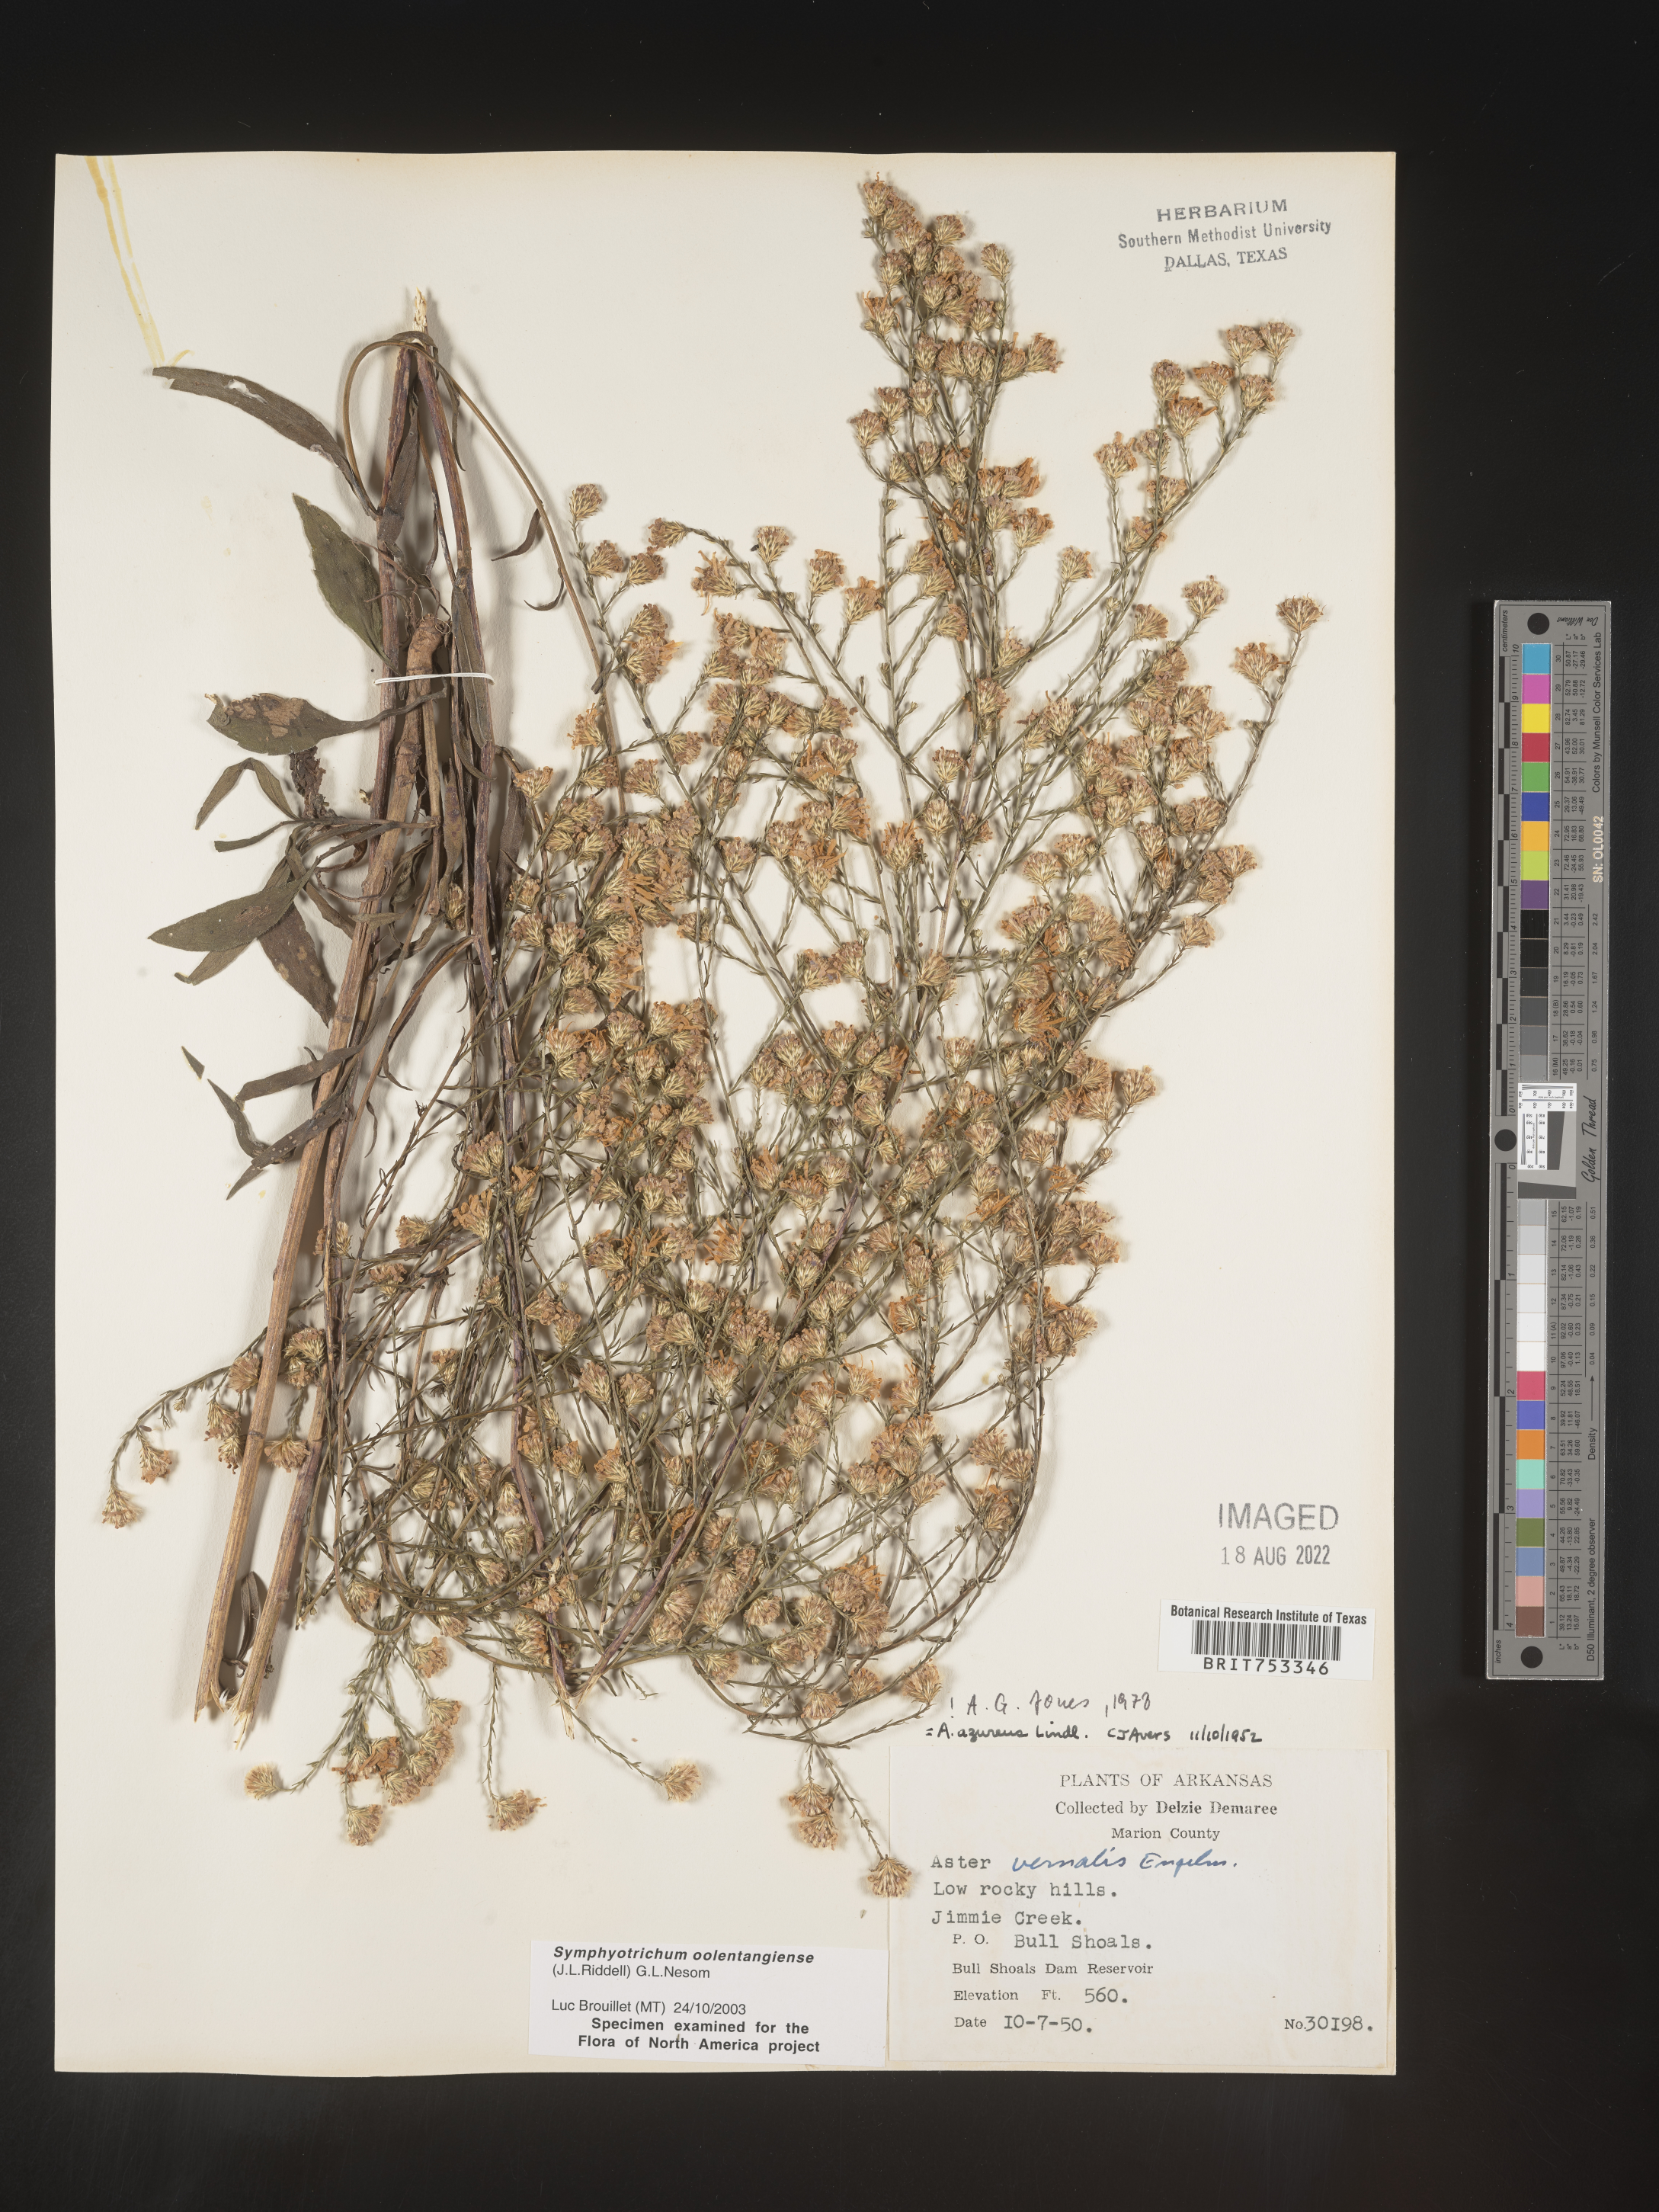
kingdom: Plantae
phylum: Tracheophyta
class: Magnoliopsida
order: Asterales
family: Asteraceae
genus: Symphyotrichum
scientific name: Symphyotrichum oolentangiense
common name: Azure aster
